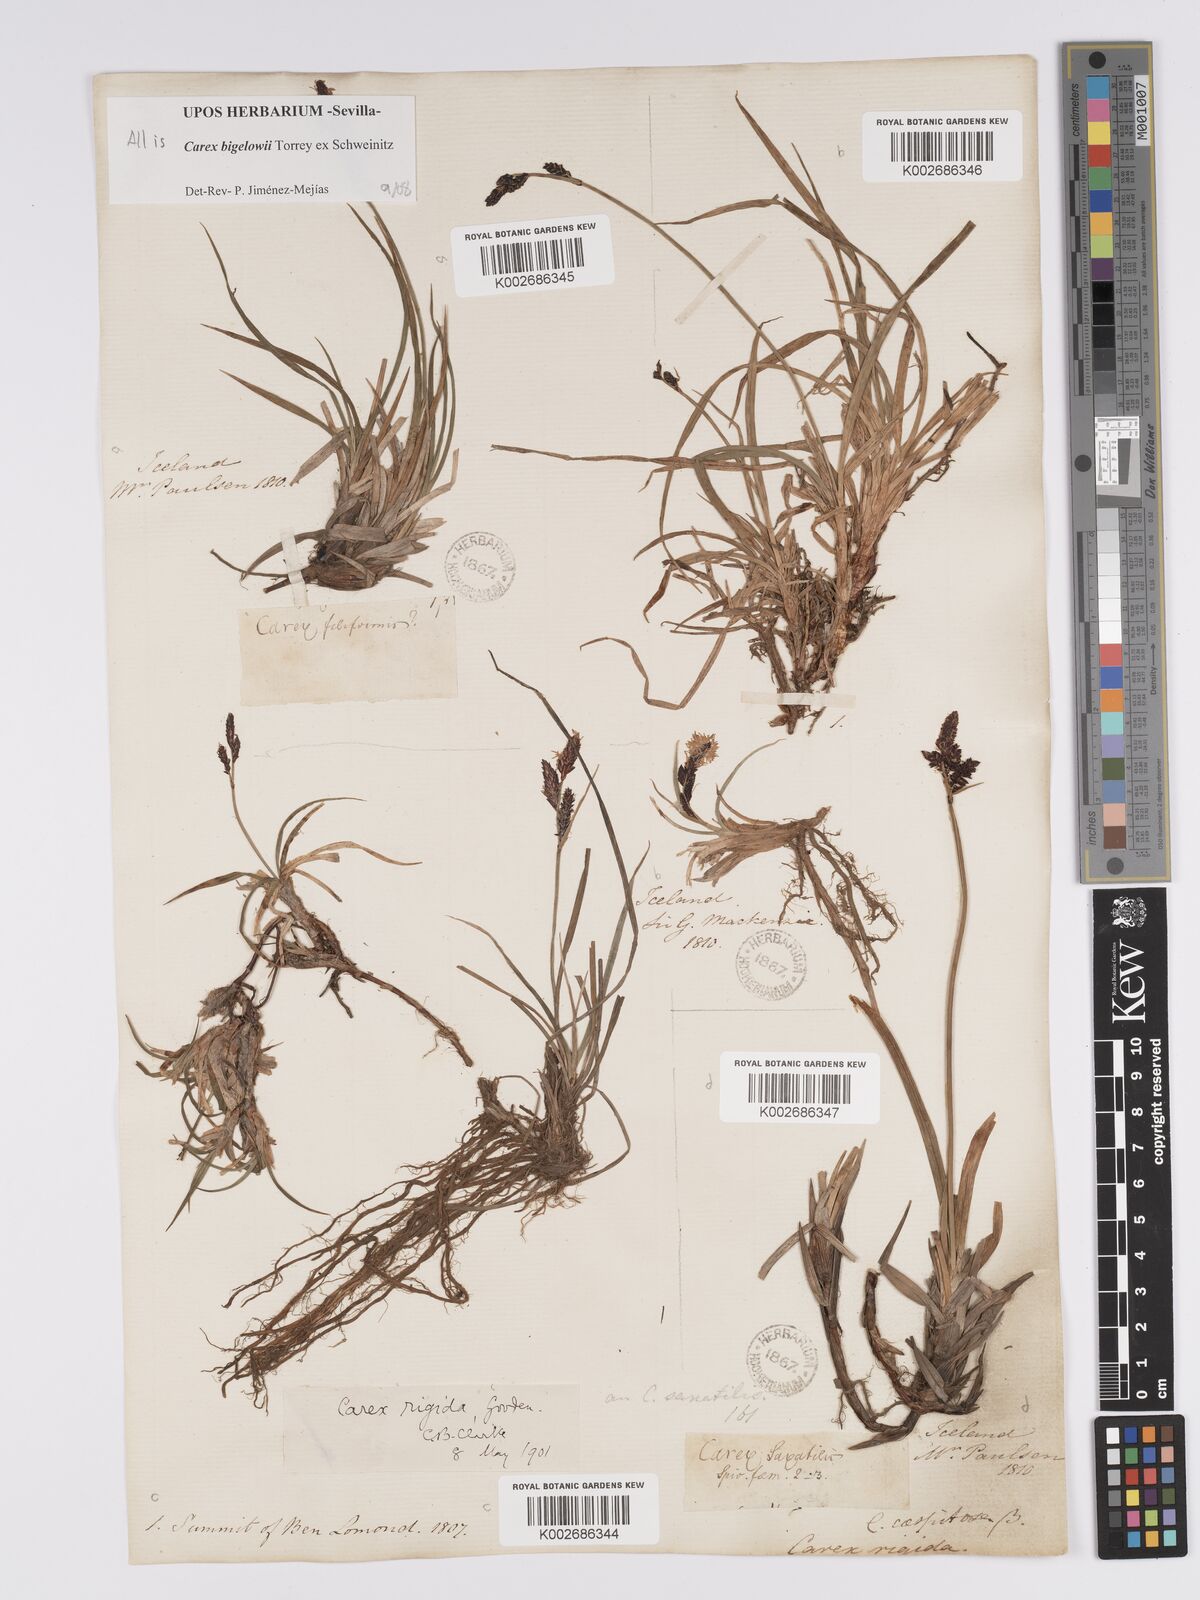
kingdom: Plantae
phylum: Tracheophyta
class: Liliopsida
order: Poales
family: Cyperaceae
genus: Carex
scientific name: Carex bigelowii
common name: Stiff sedge
